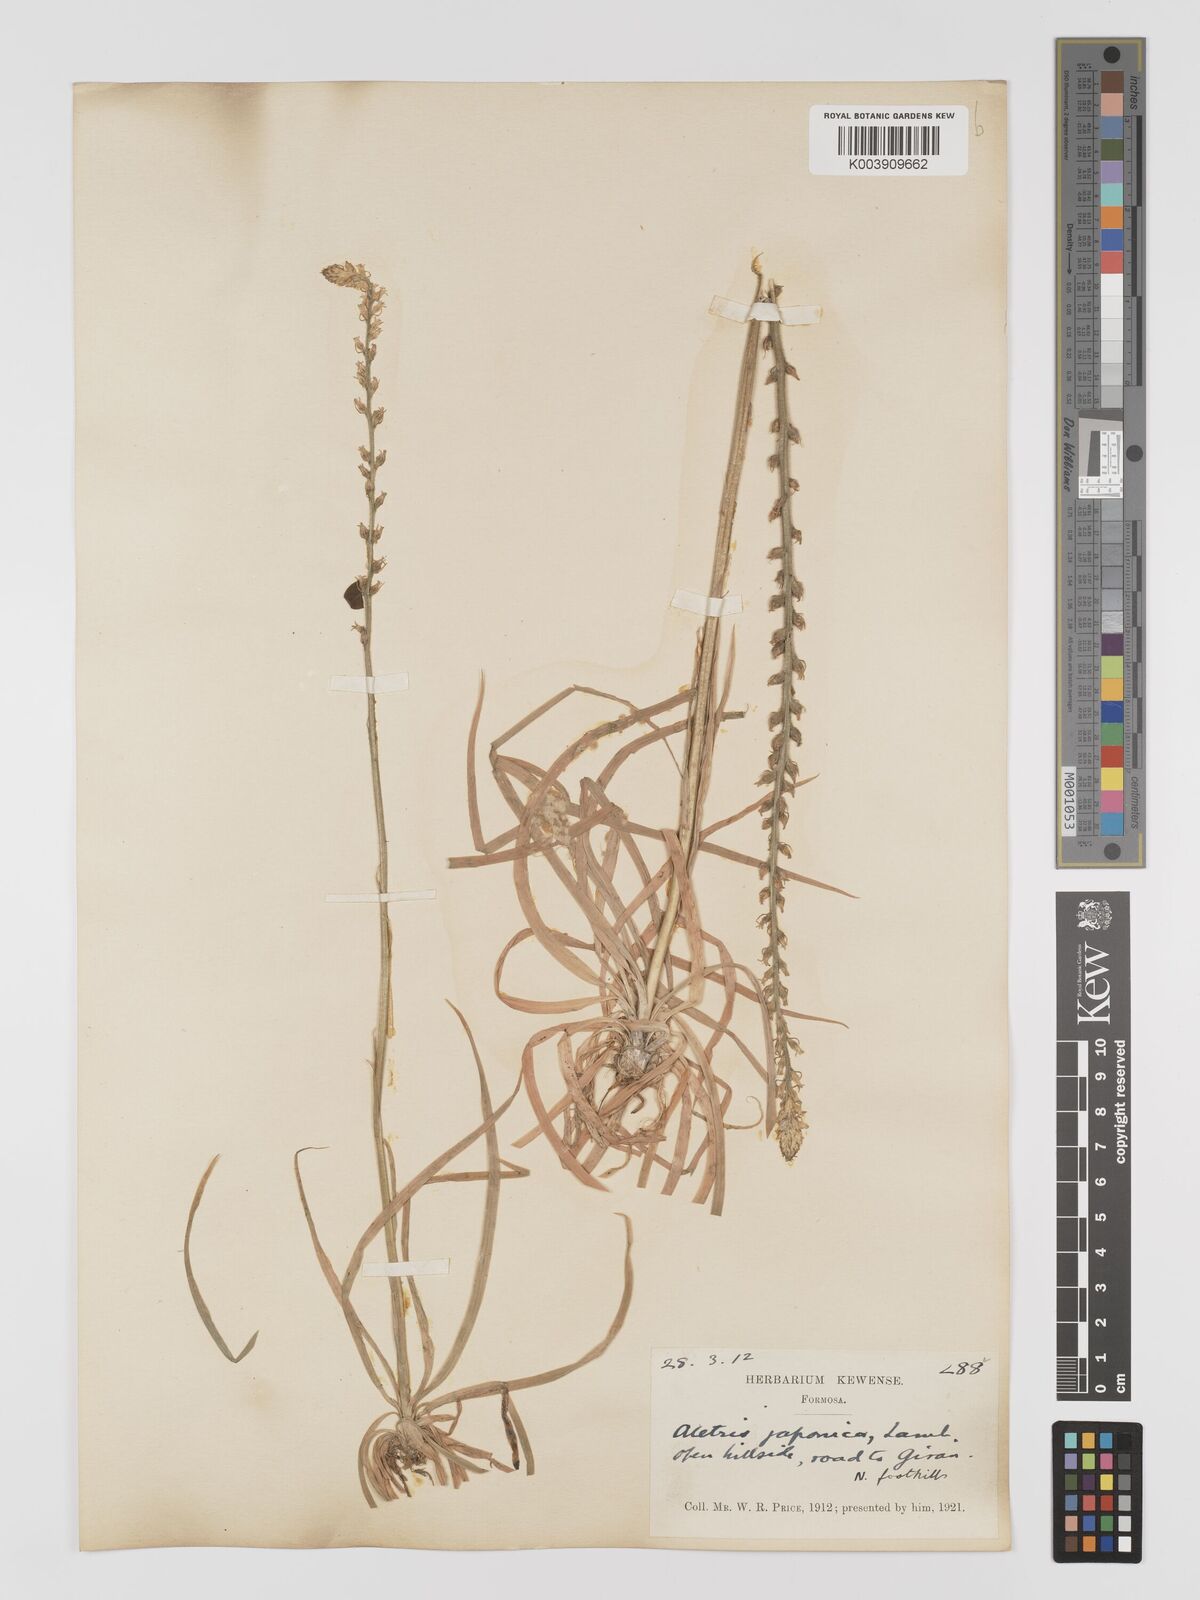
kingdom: Plantae
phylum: Tracheophyta
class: Liliopsida
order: Dioscoreales
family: Nartheciaceae
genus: Aletris
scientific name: Aletris spicata
